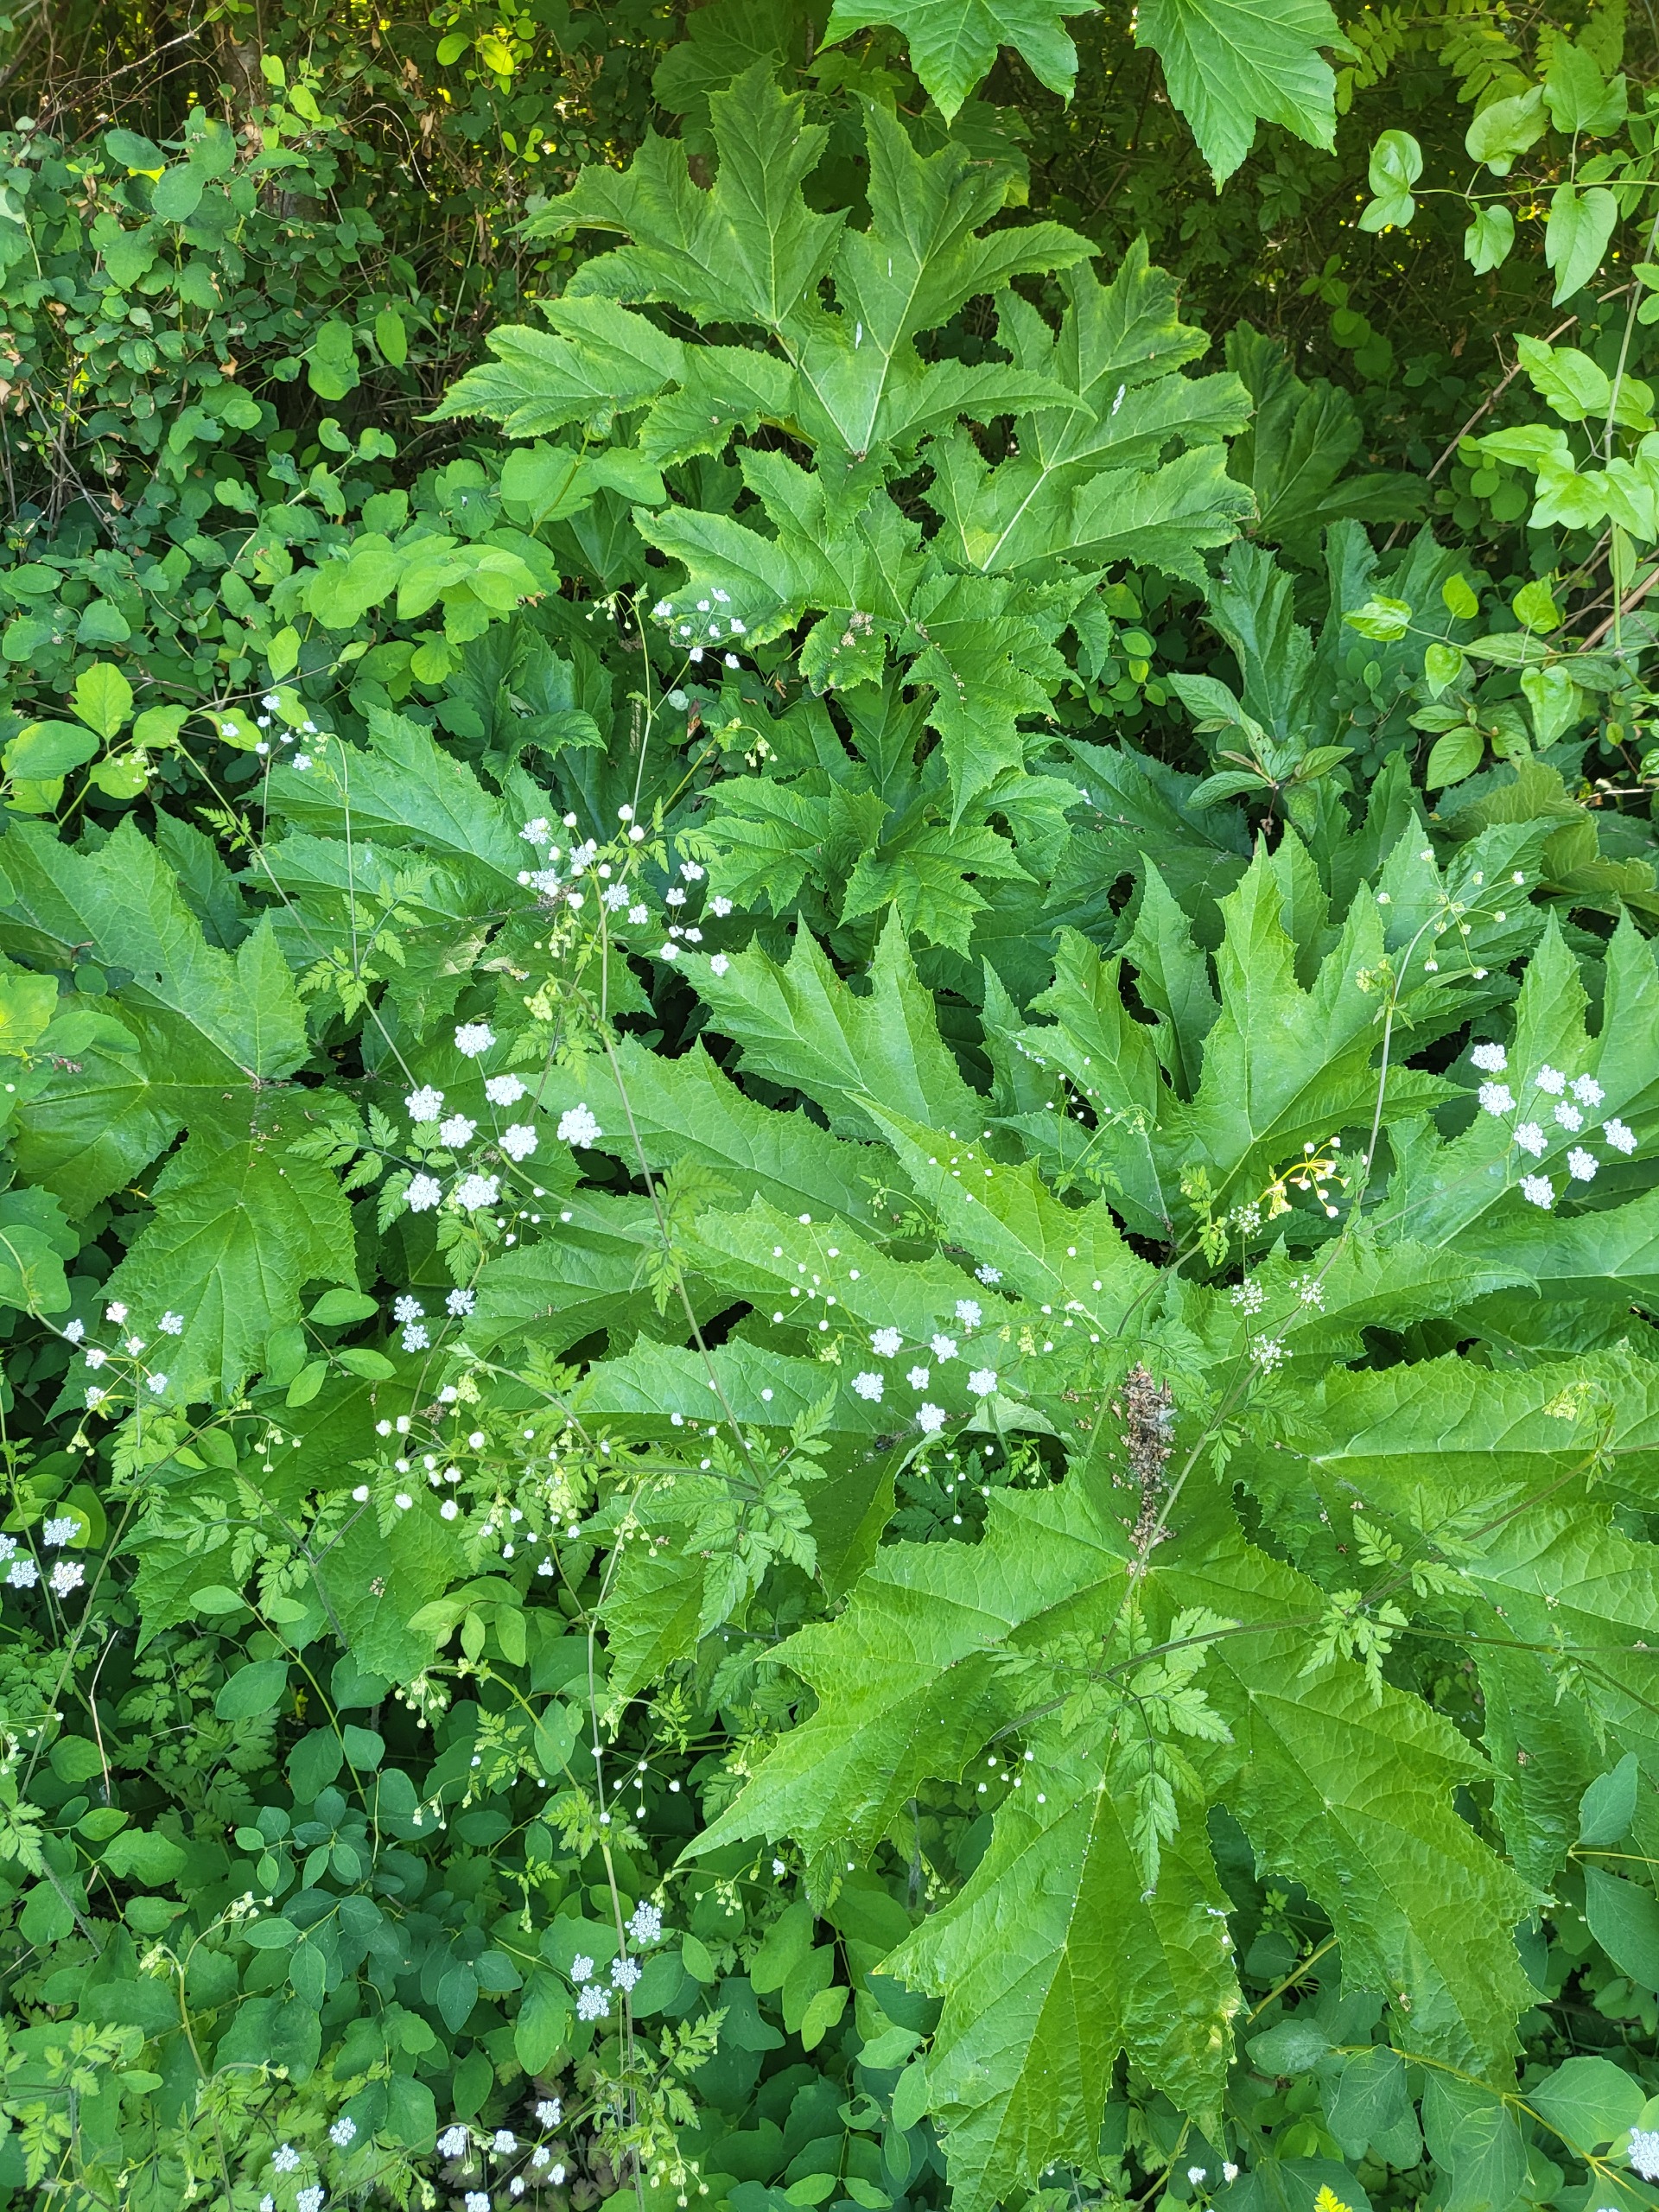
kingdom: Plantae
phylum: Tracheophyta
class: Magnoliopsida
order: Apiales
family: Apiaceae
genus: Heracleum
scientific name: Heracleum mantegazzianum
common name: Kæmpe-bjørneklo
